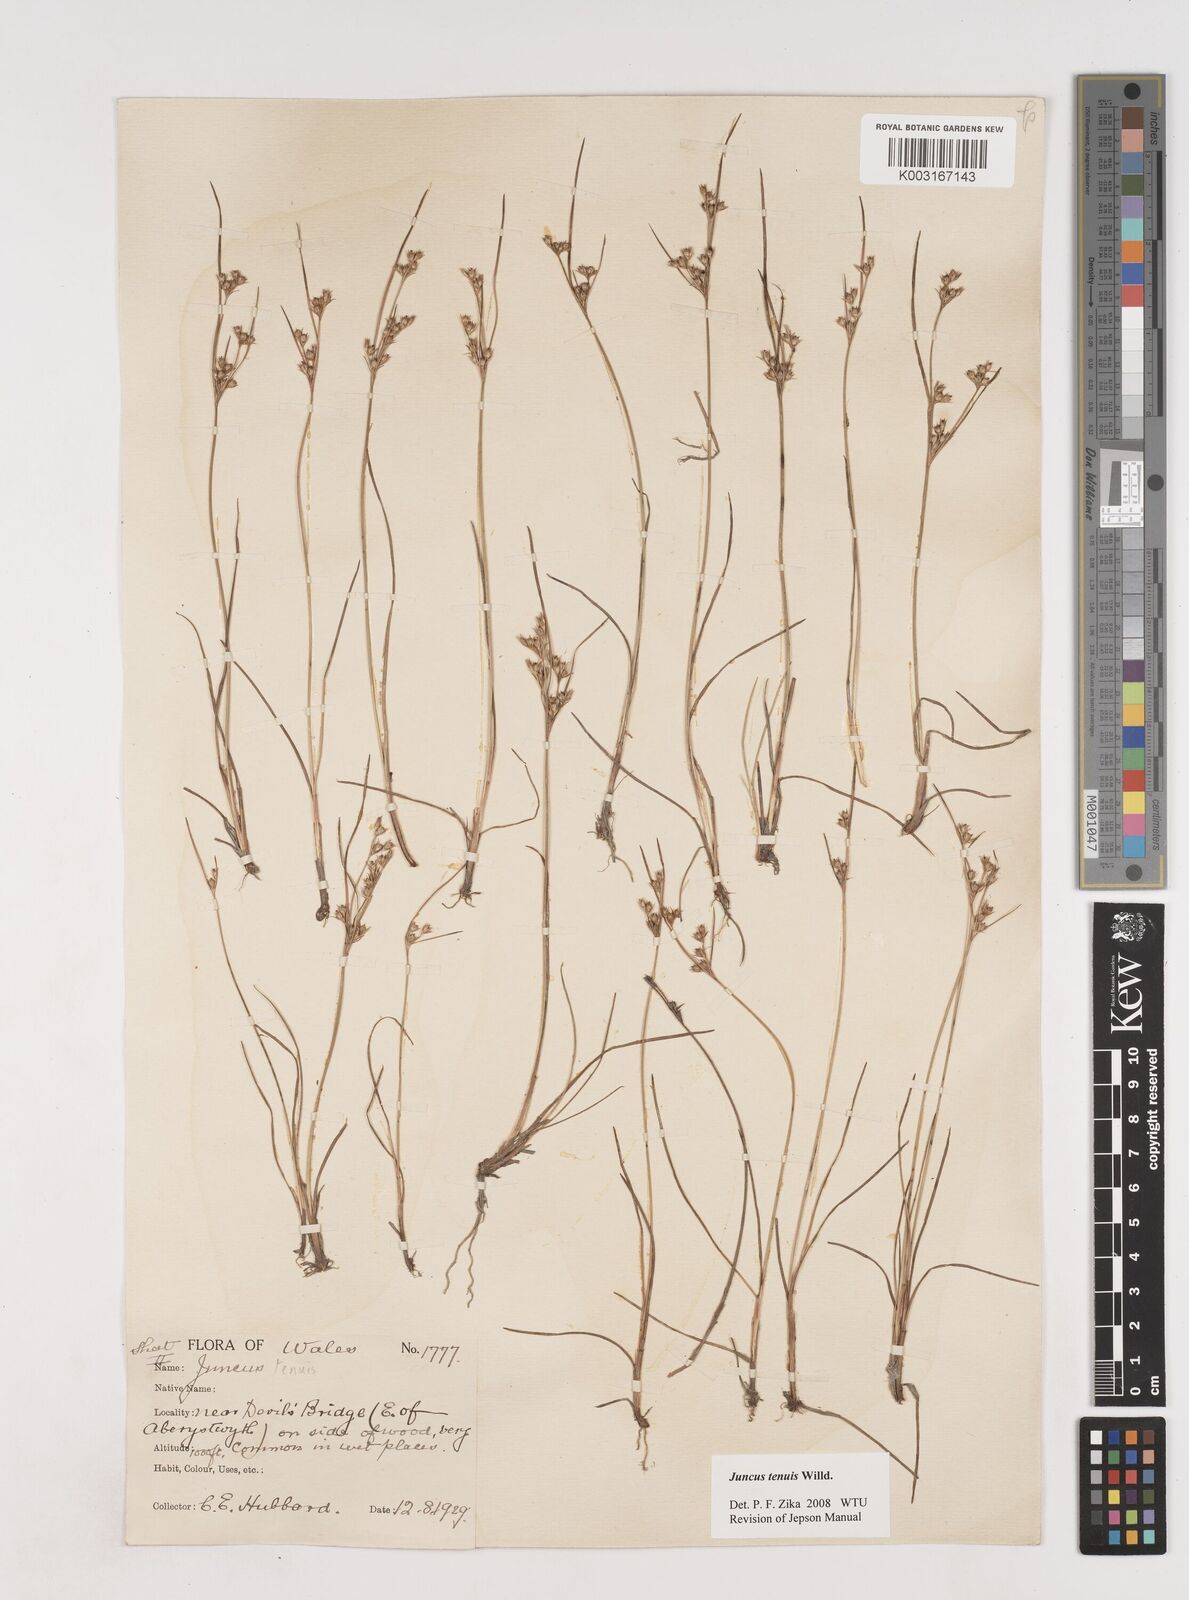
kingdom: Plantae
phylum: Tracheophyta
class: Liliopsida
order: Poales
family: Juncaceae
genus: Juncus
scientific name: Juncus tenuis
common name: Slender rush
